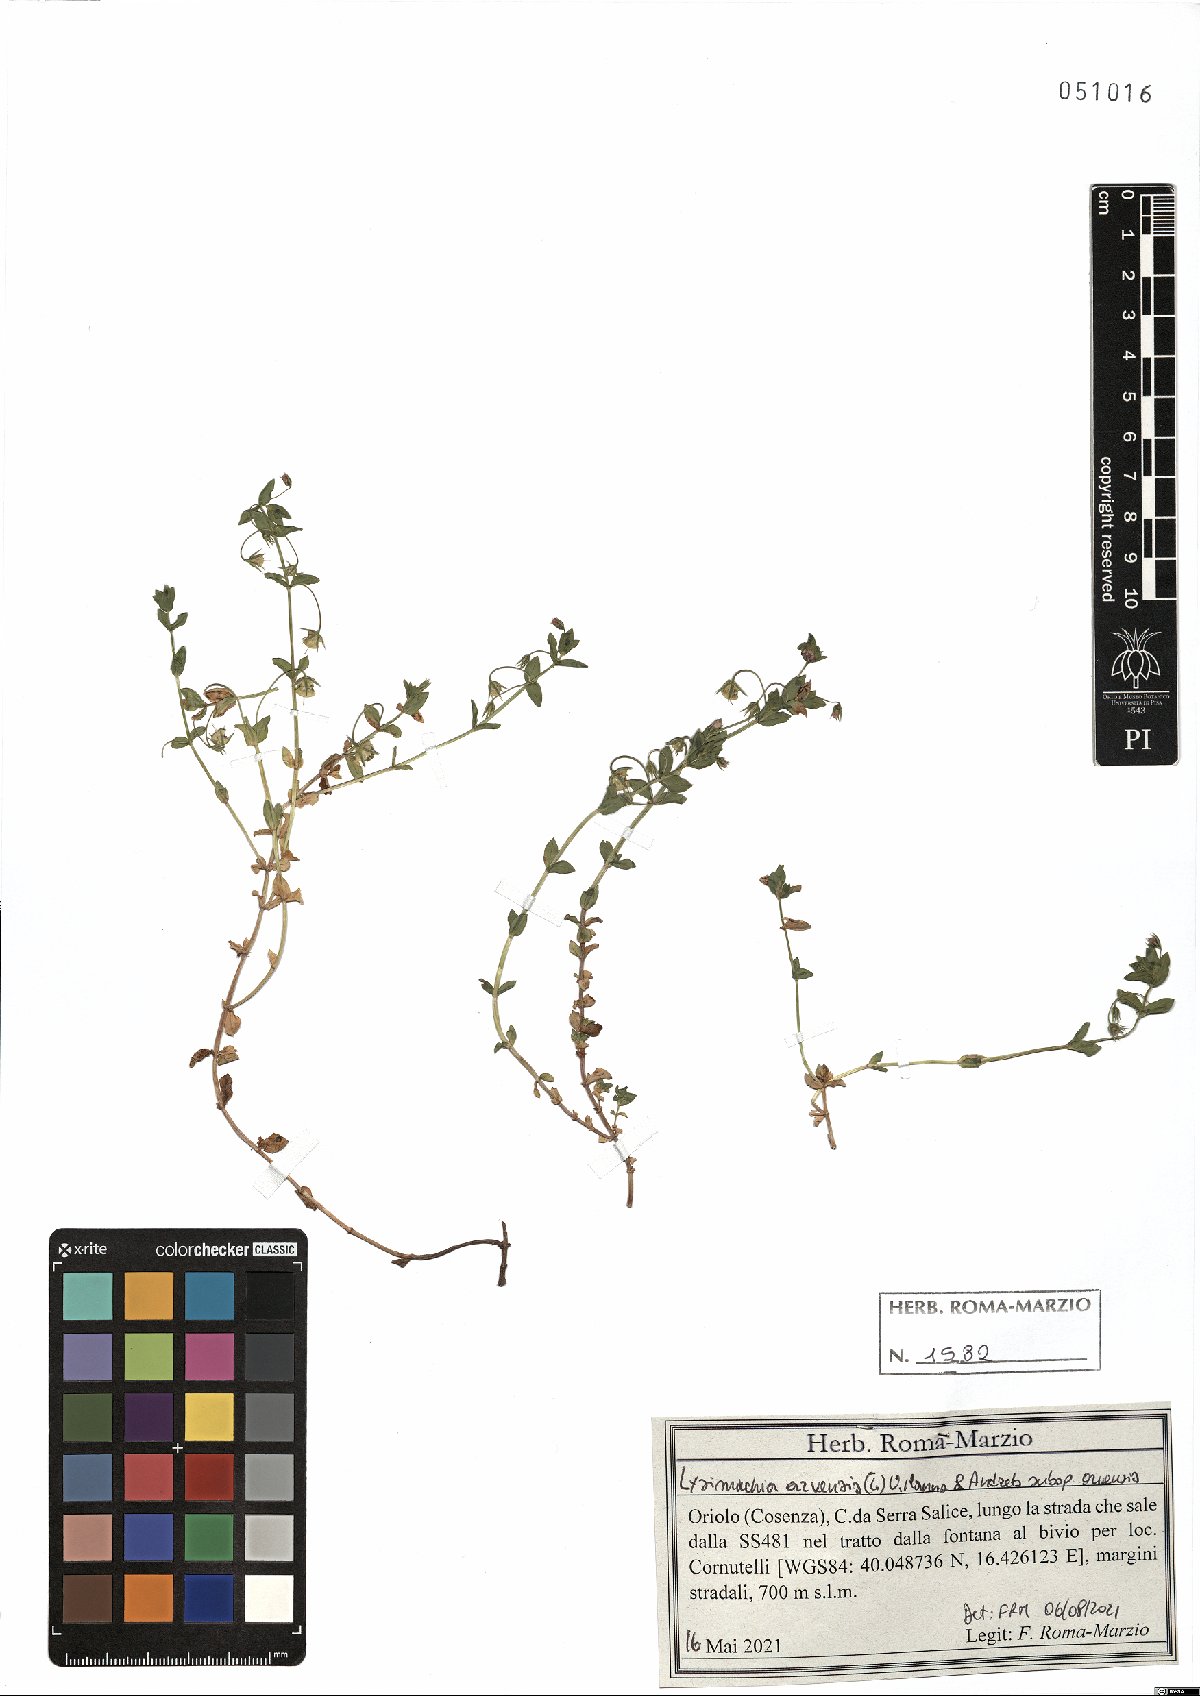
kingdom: Plantae
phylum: Tracheophyta
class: Magnoliopsida
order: Ericales
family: Primulaceae
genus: Lysimachia
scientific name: Lysimachia arvensis
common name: Scarlet pimpernel
